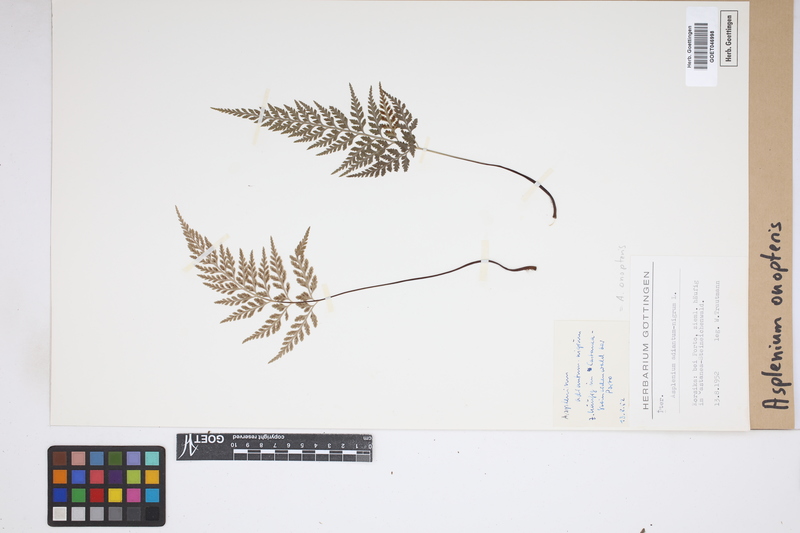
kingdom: Plantae
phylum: Tracheophyta
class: Polypodiopsida
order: Polypodiales
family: Aspleniaceae
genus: Asplenium
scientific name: Asplenium onopteris
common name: Irish spleenwort
